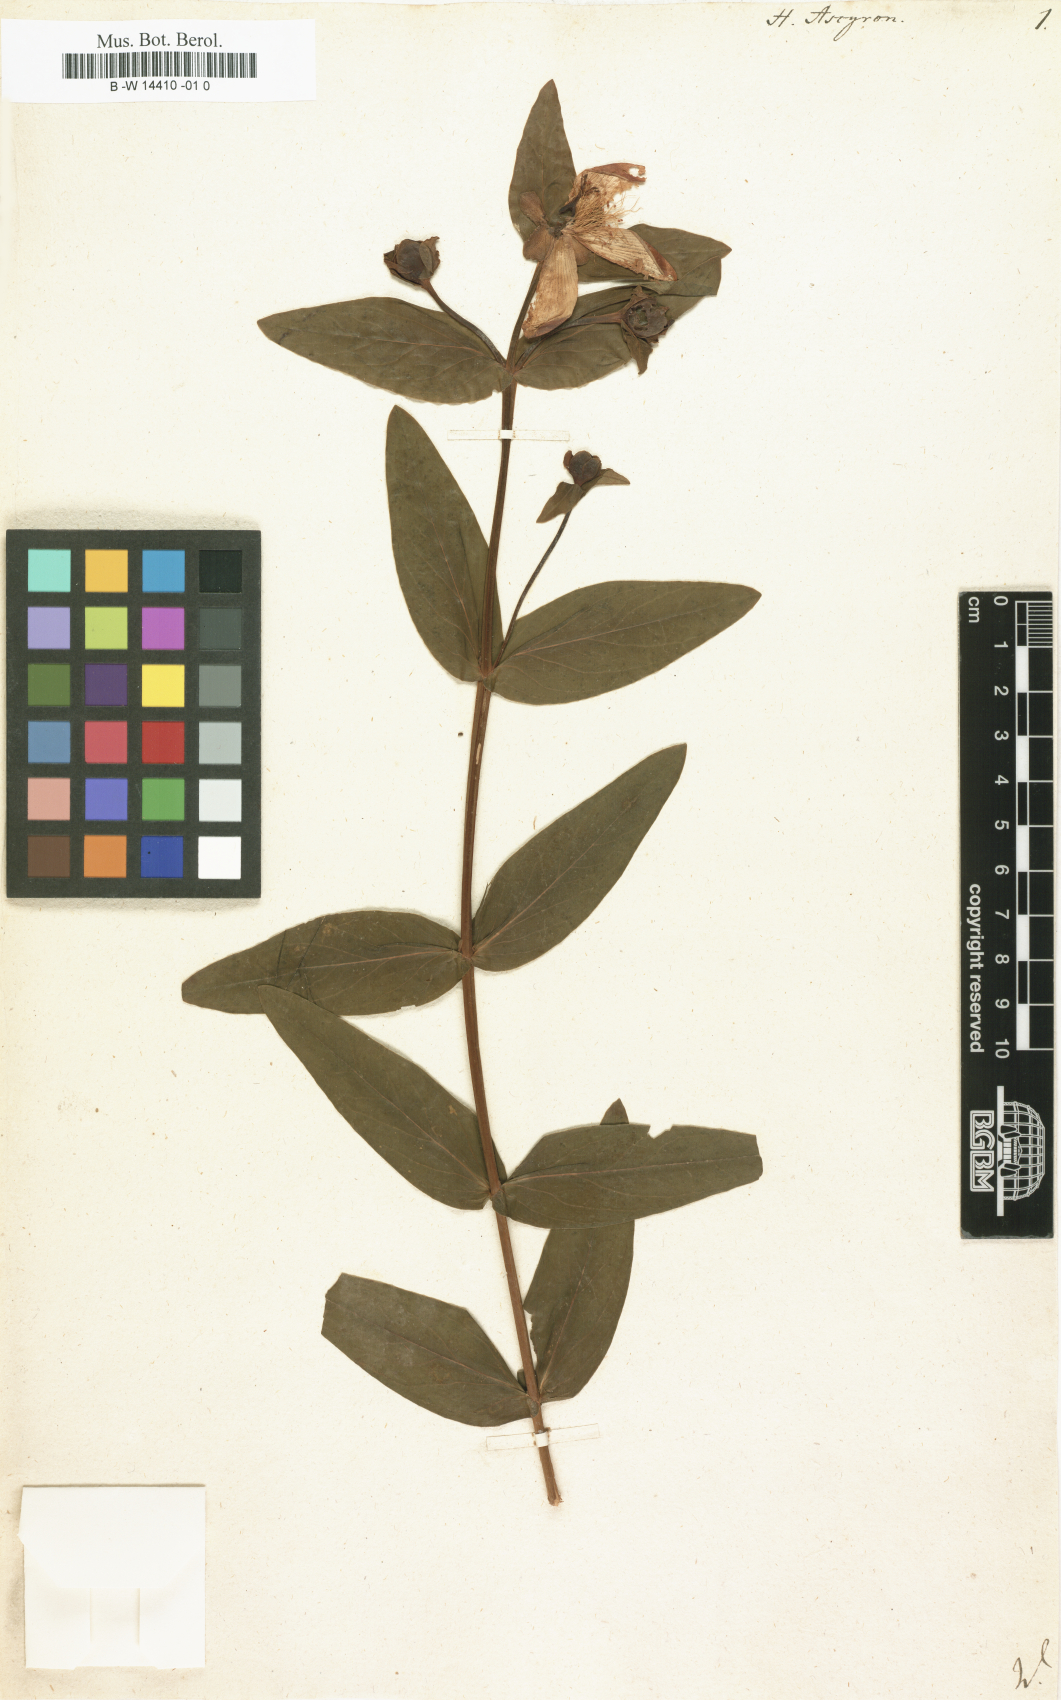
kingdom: Plantae
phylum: Tracheophyta
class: Magnoliopsida
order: Malpighiales
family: Hypericaceae
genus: Hypericum
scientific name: Hypericum ascyron
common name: Giant st. john's-wort
